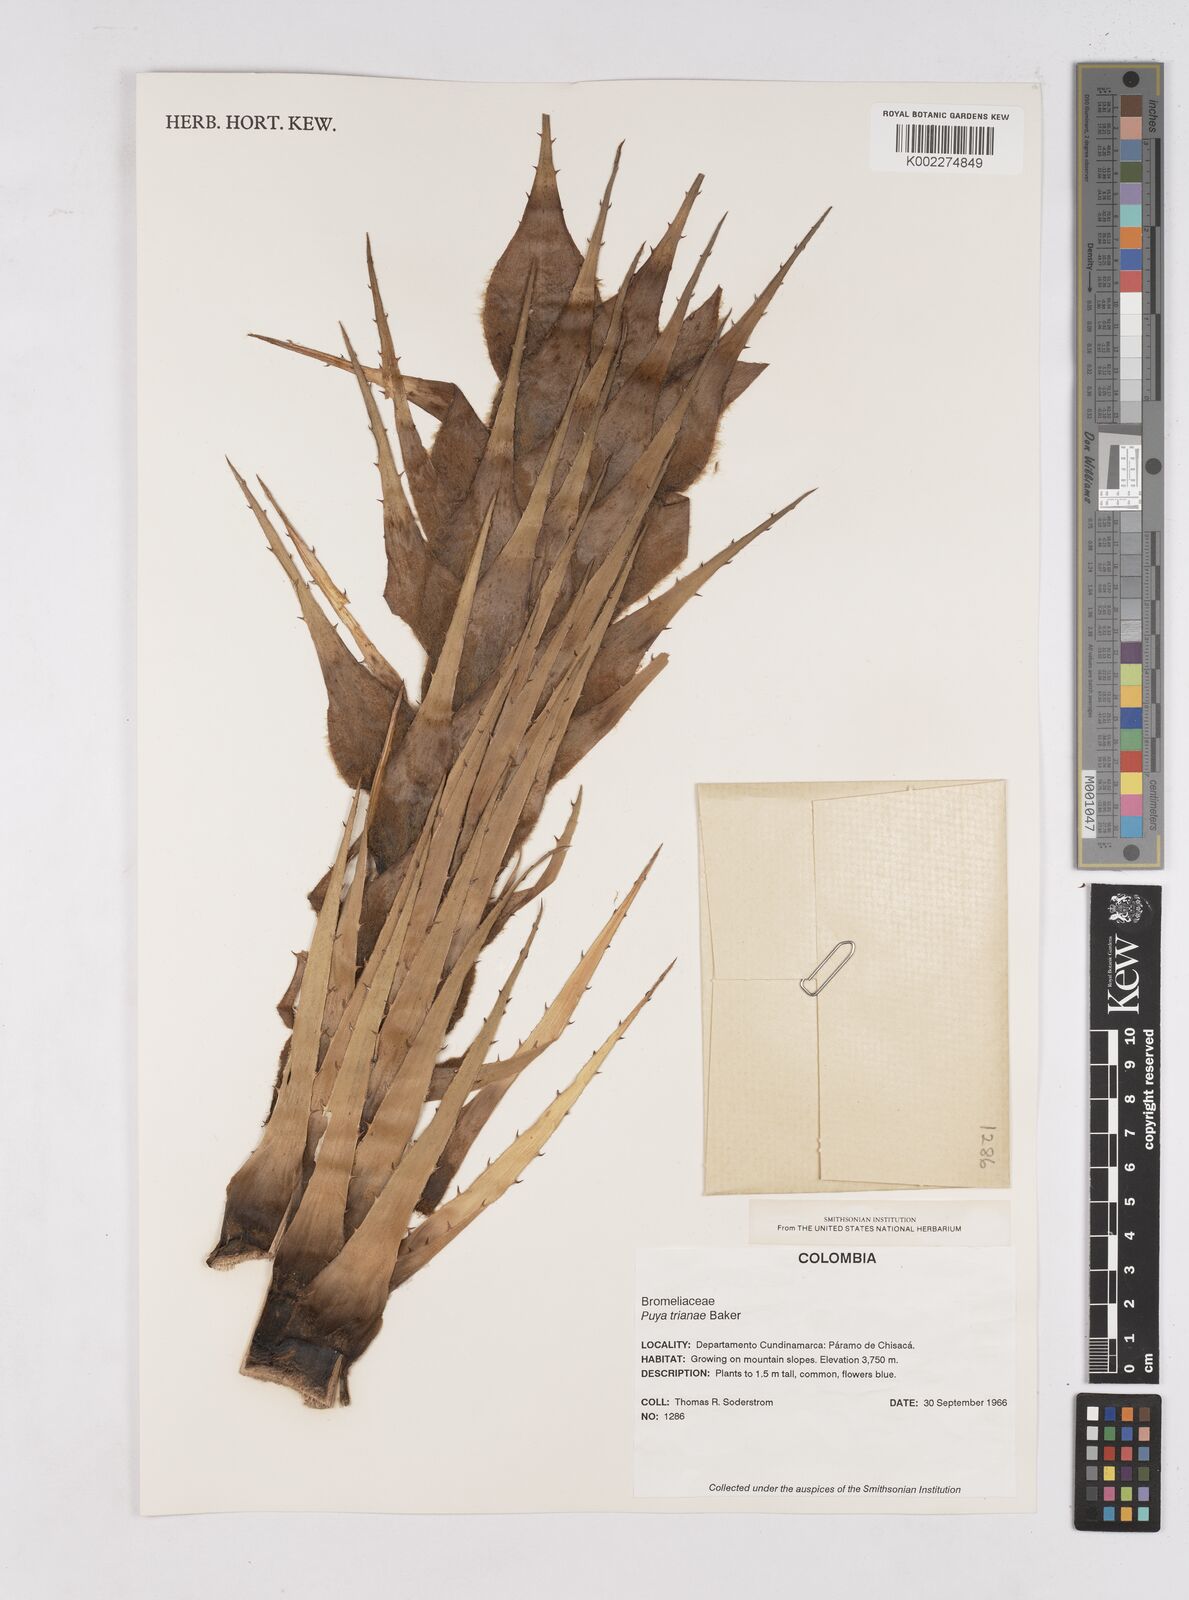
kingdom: Plantae
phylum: Tracheophyta
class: Liliopsida
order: Poales
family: Bromeliaceae
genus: Puya
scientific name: Puya trianae
